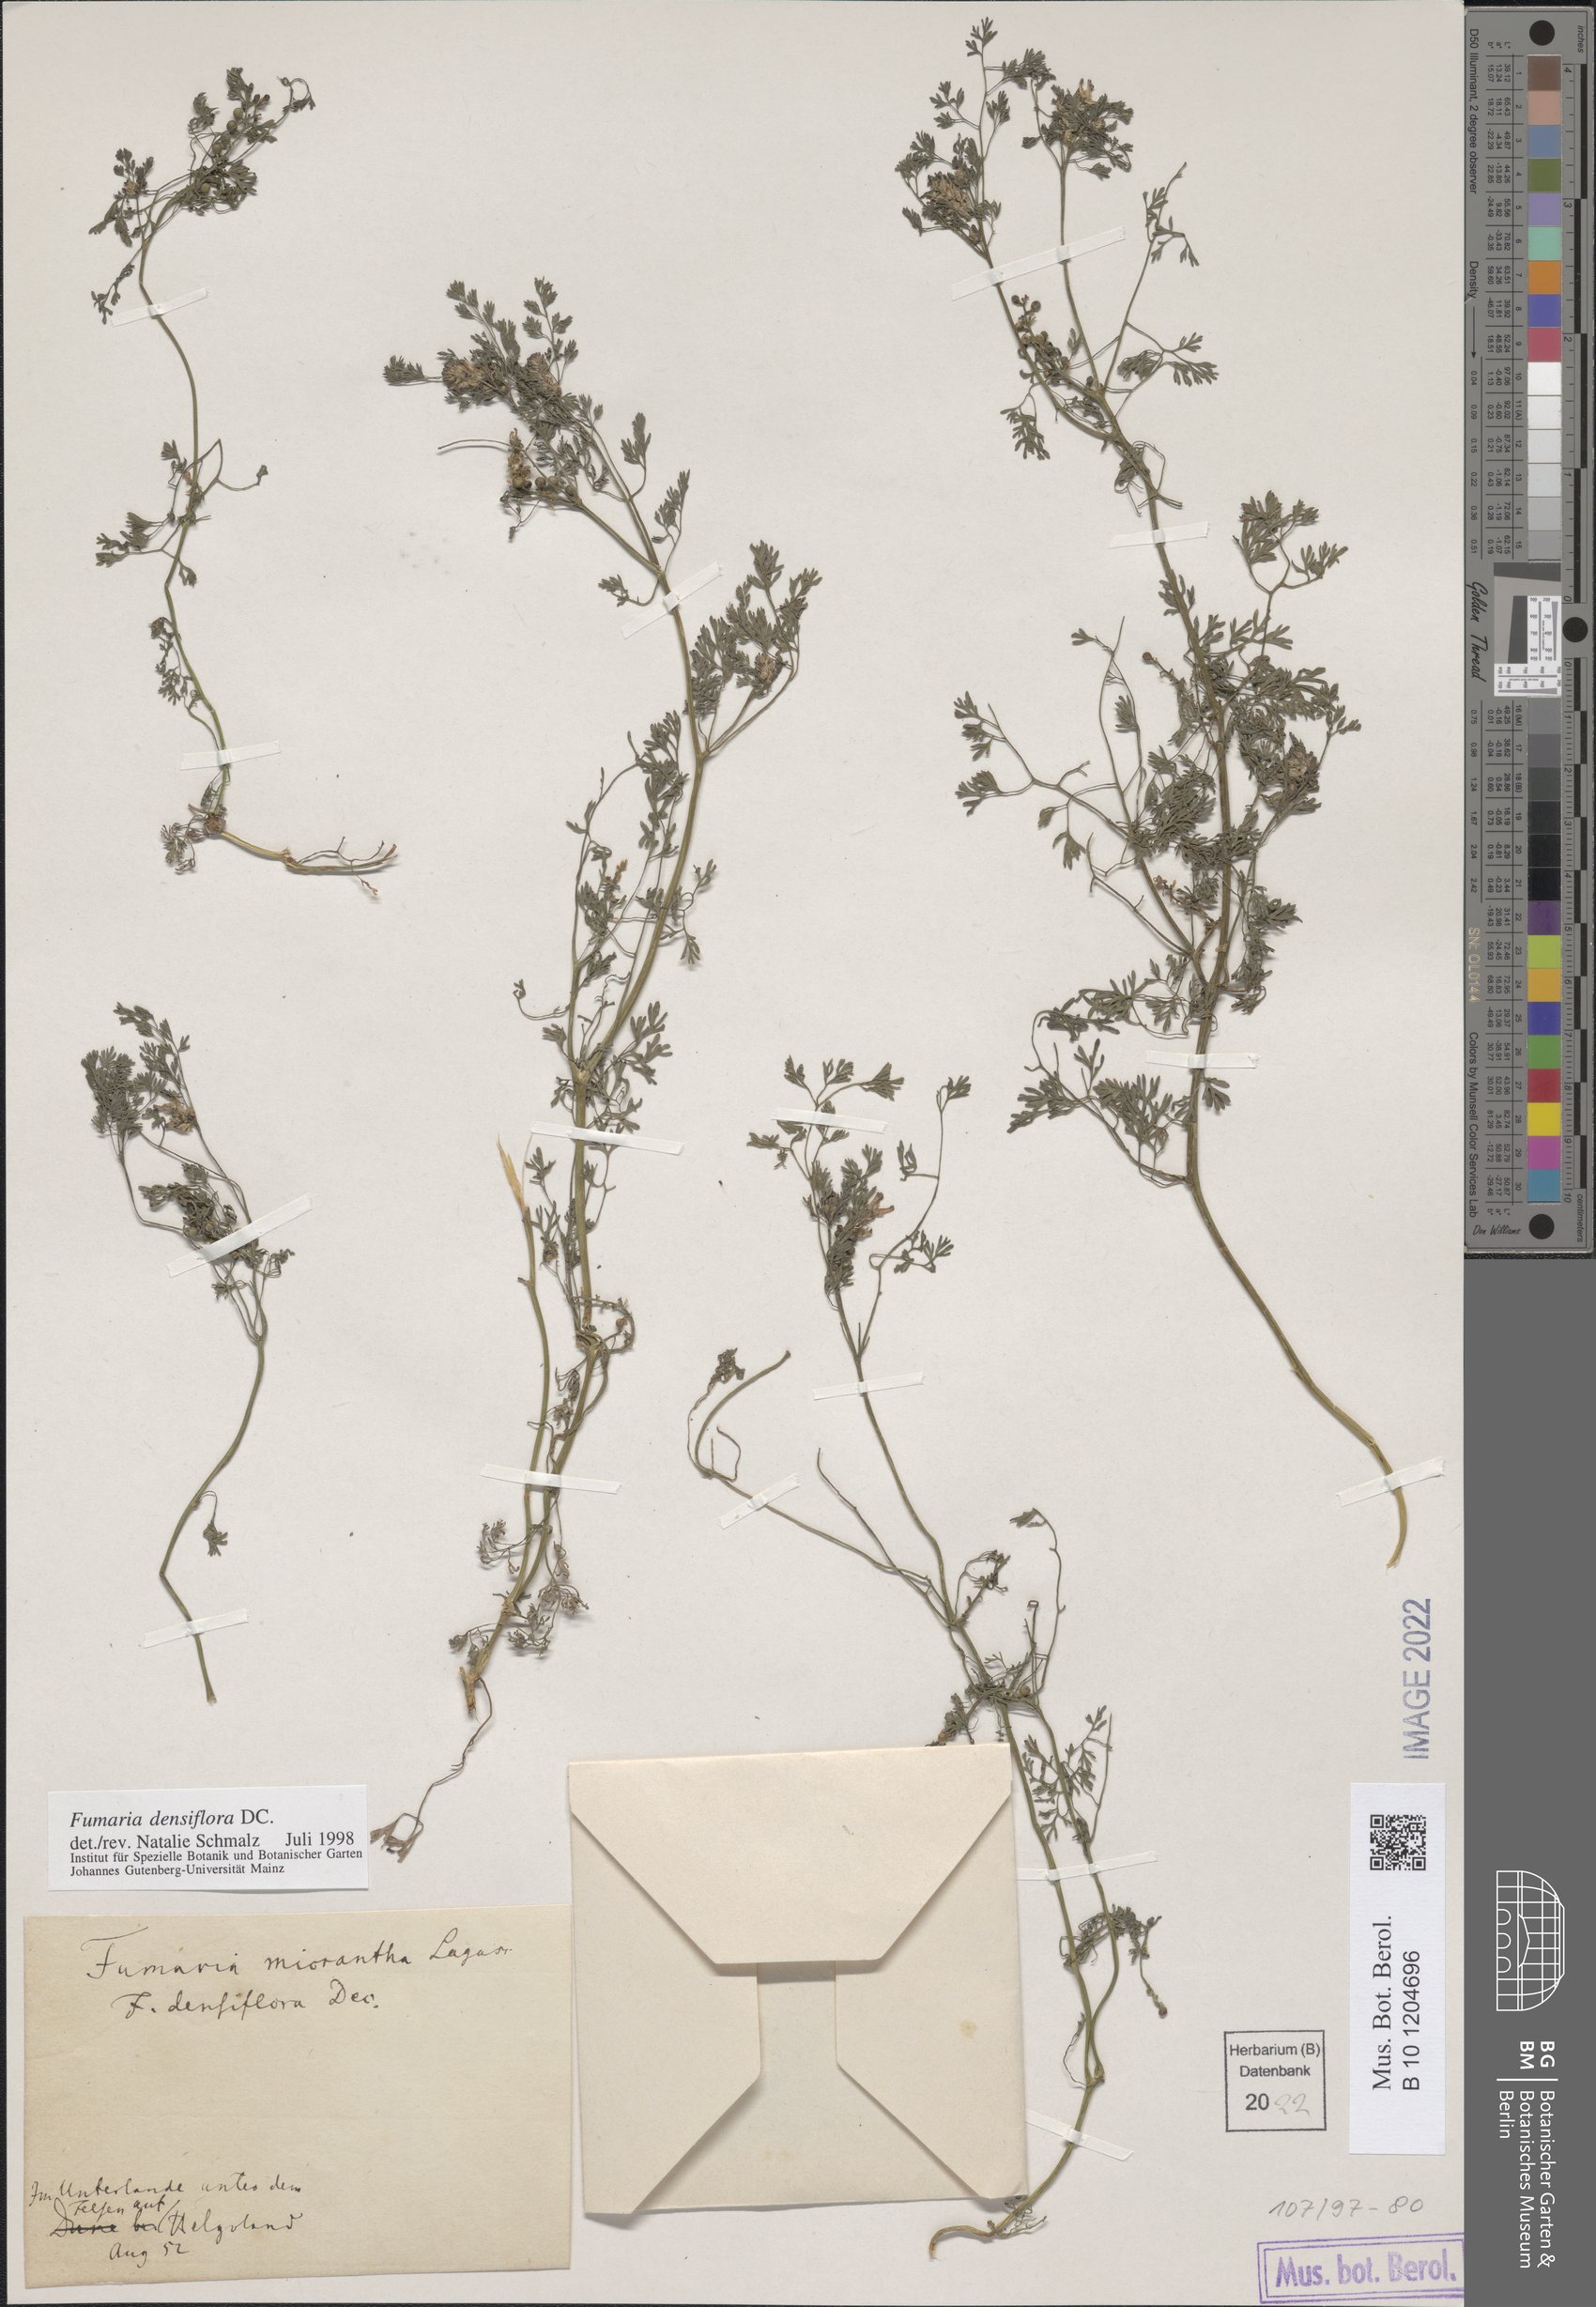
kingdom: Plantae
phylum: Tracheophyta
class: Magnoliopsida
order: Ranunculales
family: Papaveraceae
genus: Fumaria
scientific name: Fumaria densiflora
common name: Dense-flowered fumitory
